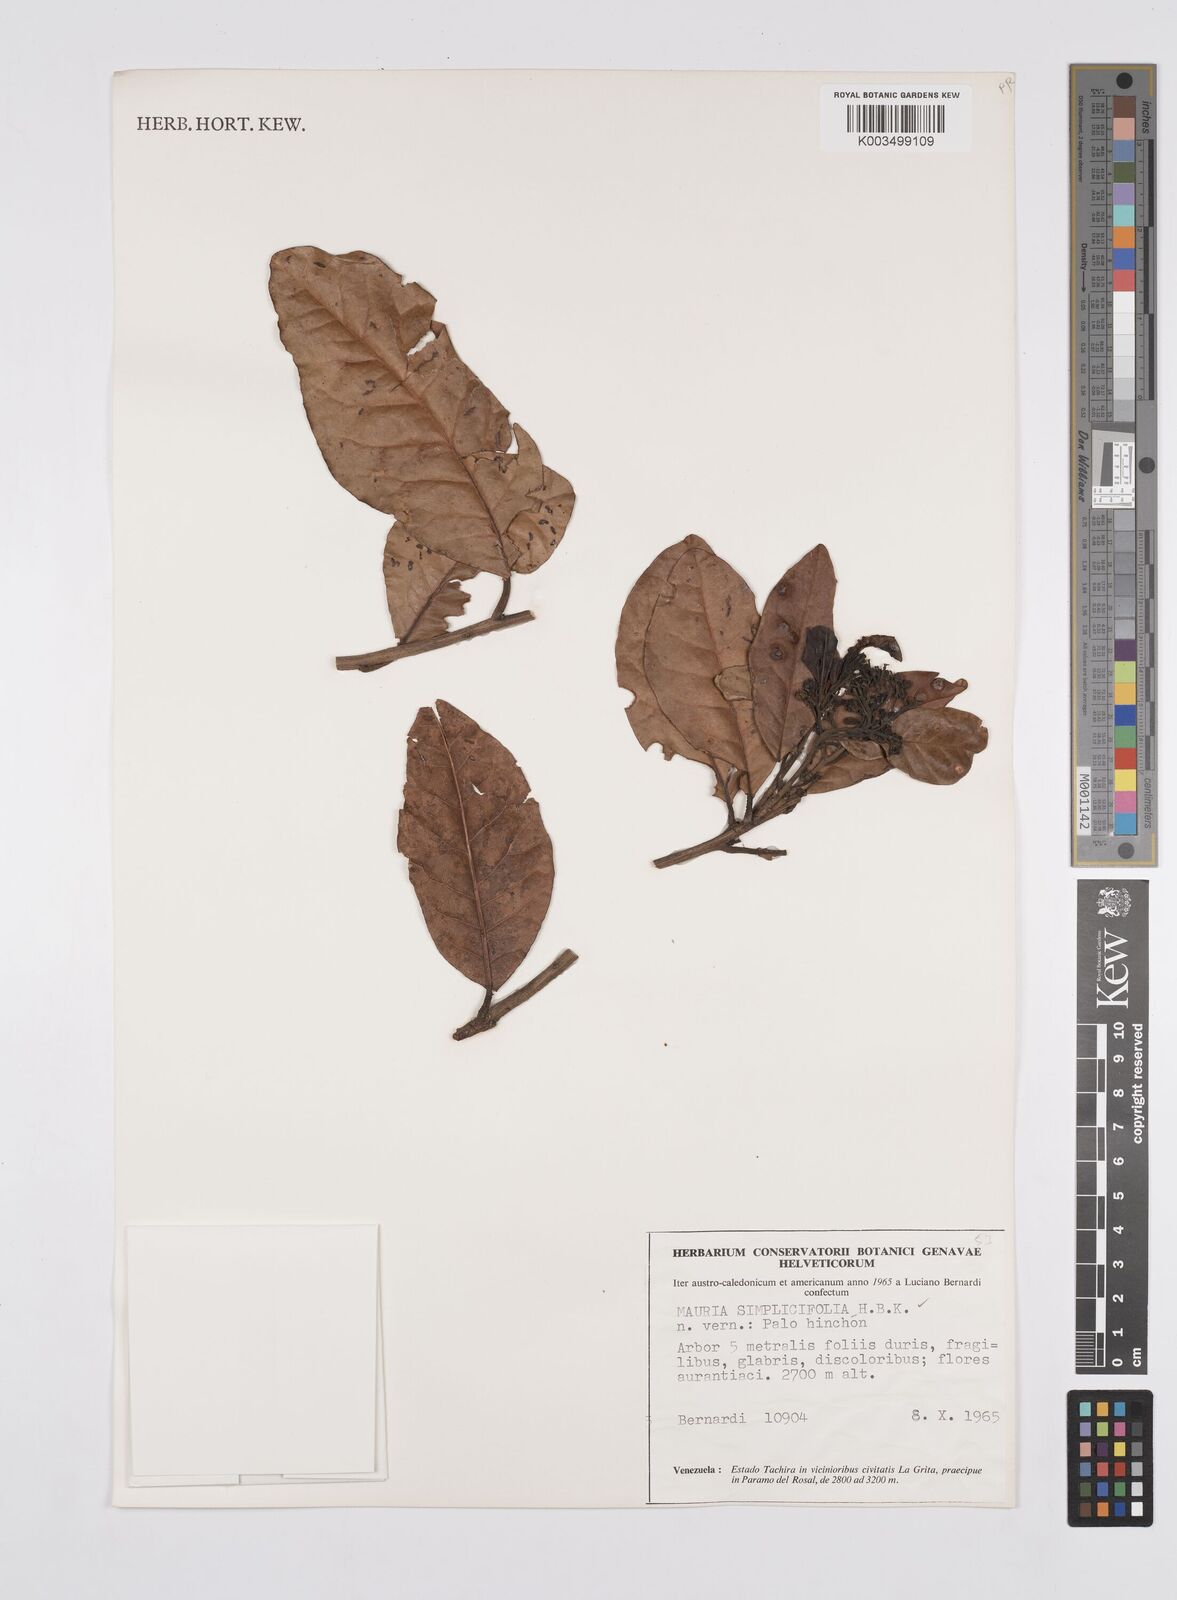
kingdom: Plantae
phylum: Tracheophyta
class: Magnoliopsida
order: Sapindales
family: Anacardiaceae
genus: Mauria
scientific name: Mauria simplicifolia
